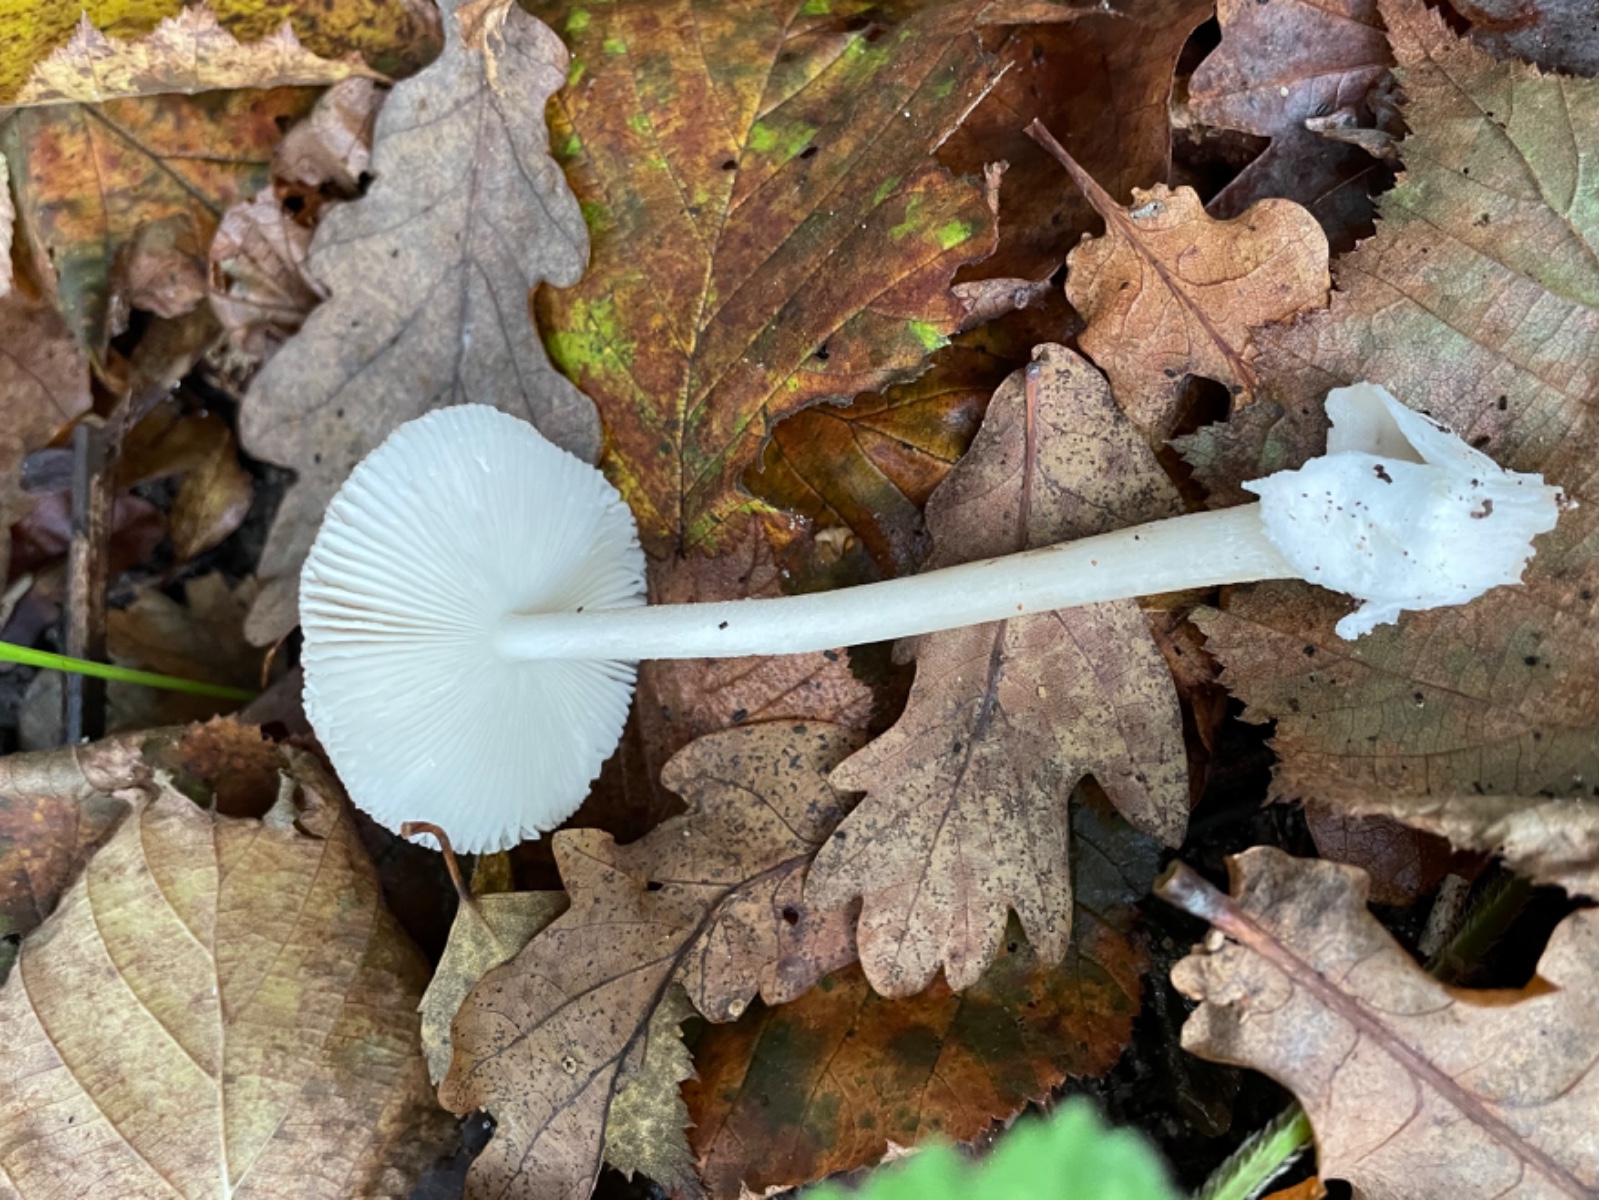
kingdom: Fungi
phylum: Basidiomycota
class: Agaricomycetes
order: Agaricales
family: Amanitaceae
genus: Amanita
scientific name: Amanita olivaceogrisea
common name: olivengrå kam-fluesvamp
